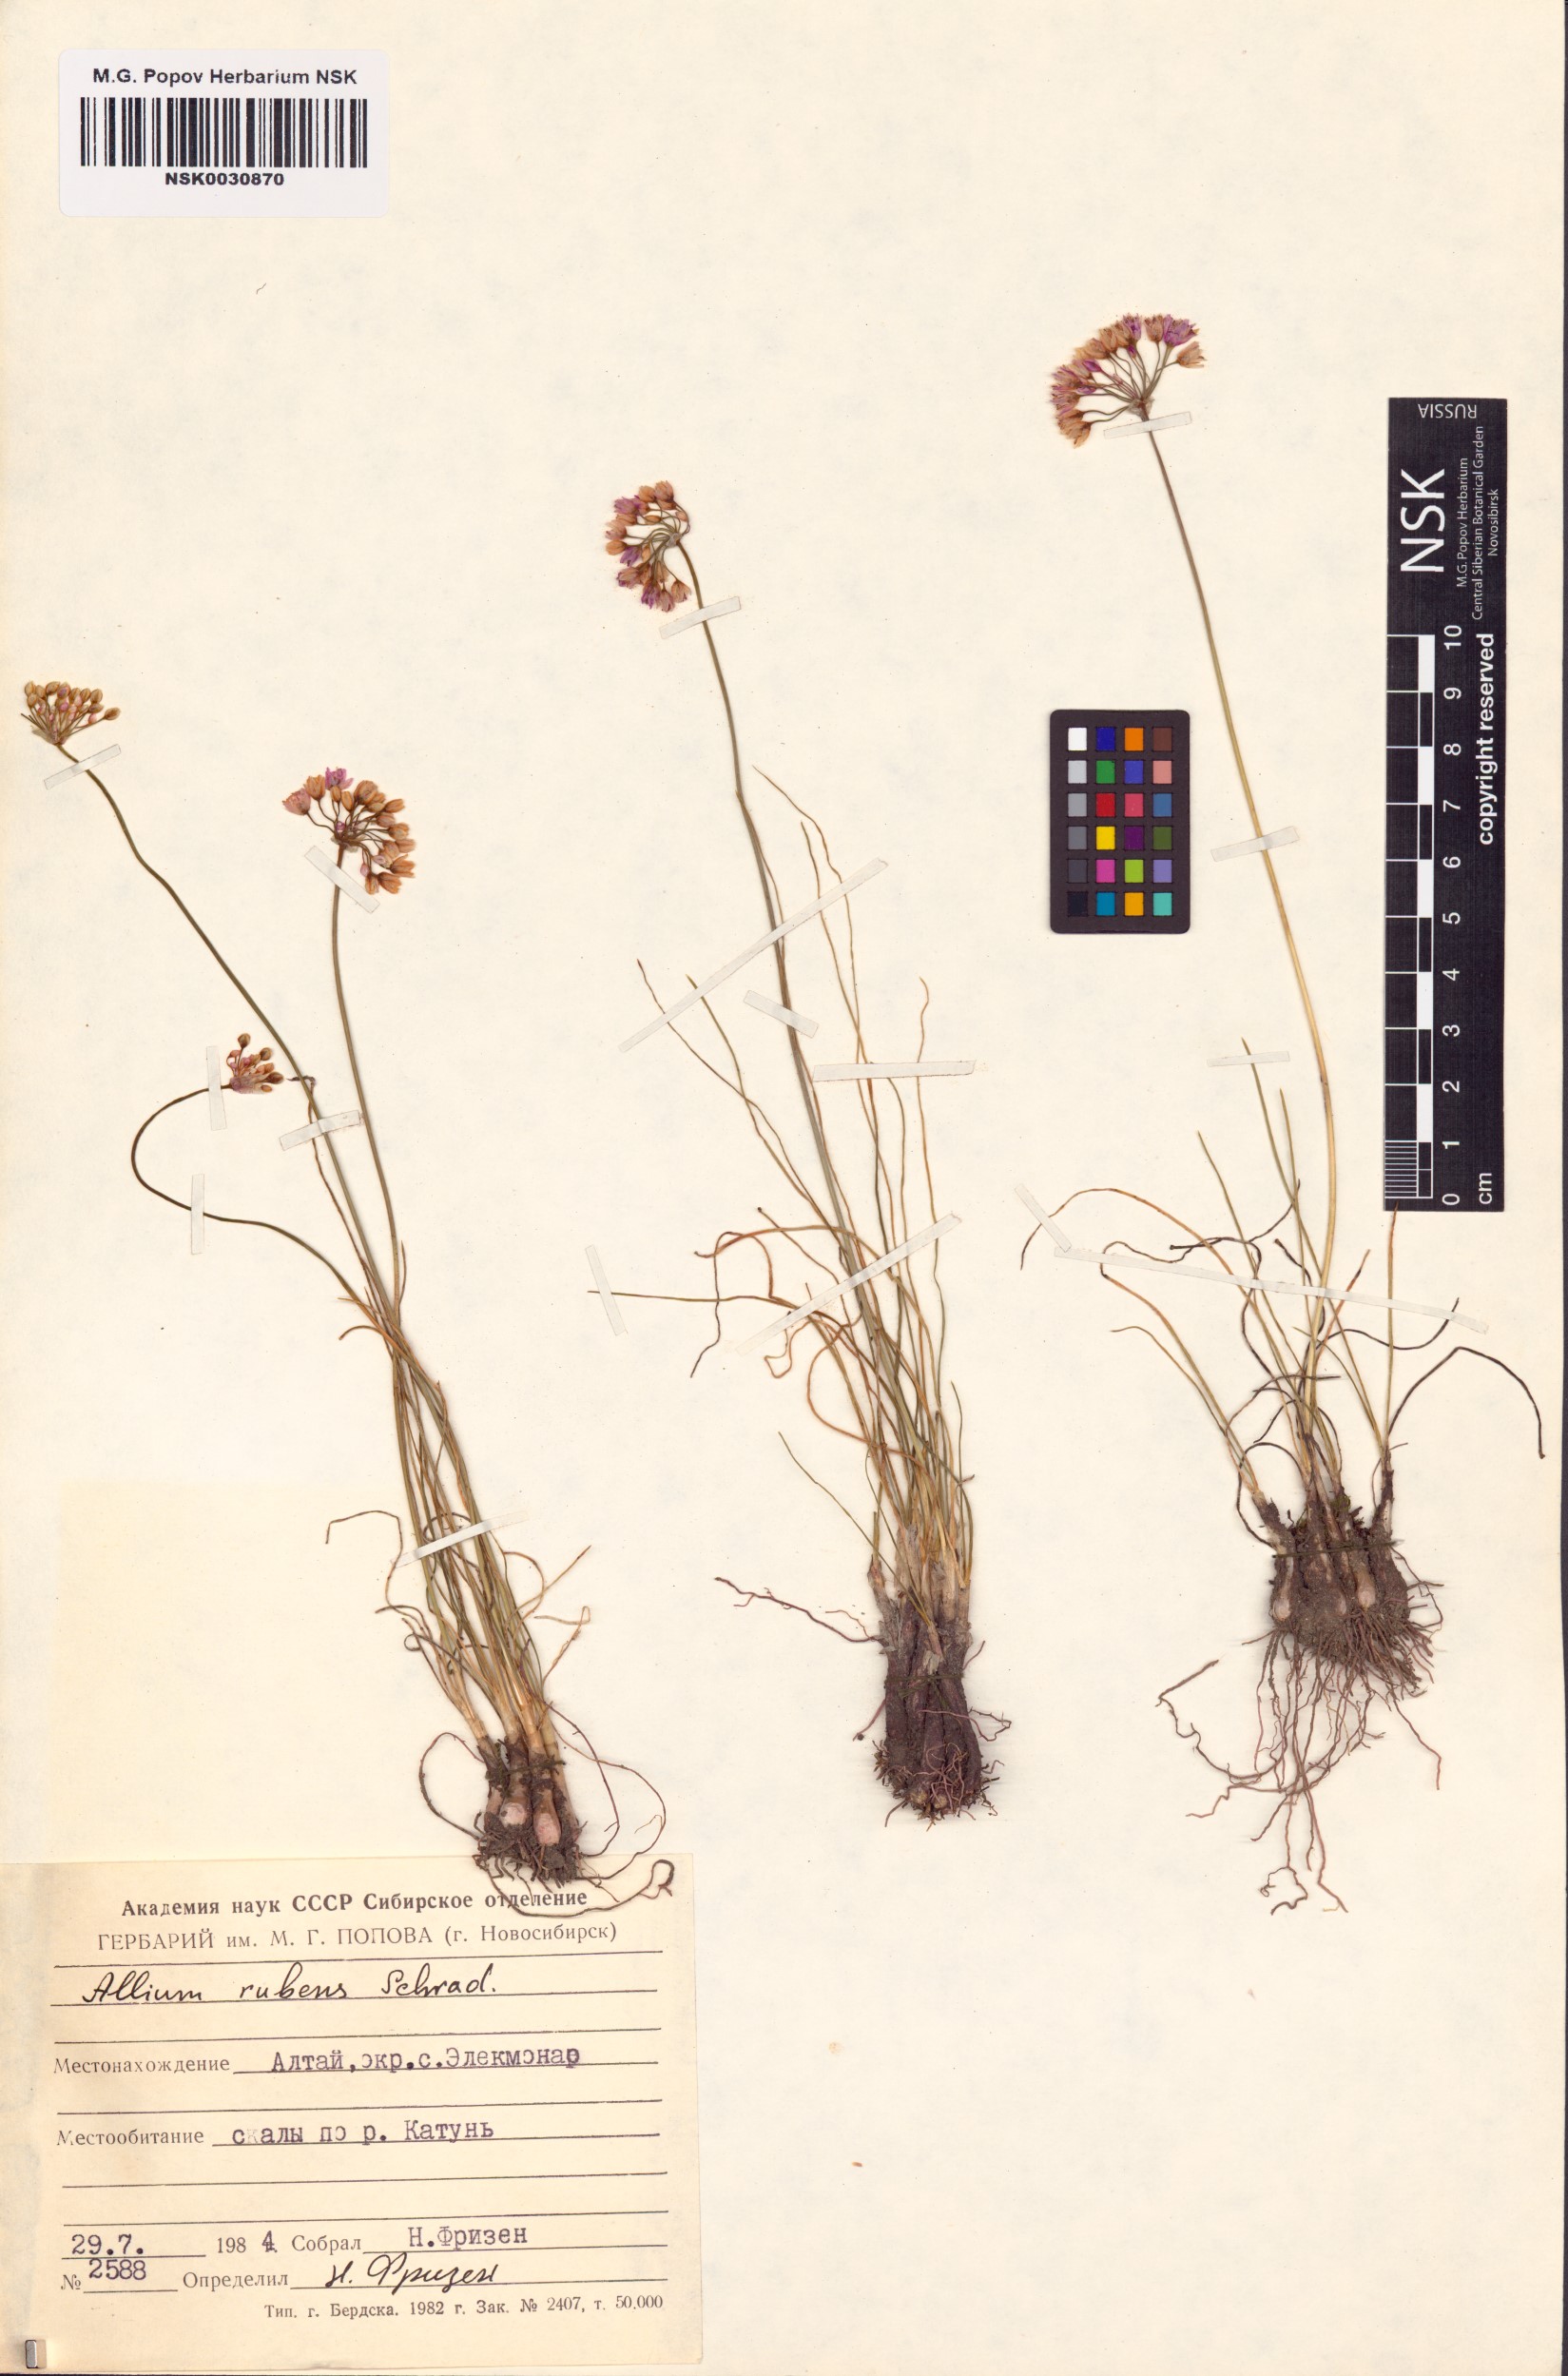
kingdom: Plantae
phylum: Tracheophyta
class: Liliopsida
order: Asparagales
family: Amaryllidaceae
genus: Allium
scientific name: Allium rubens
